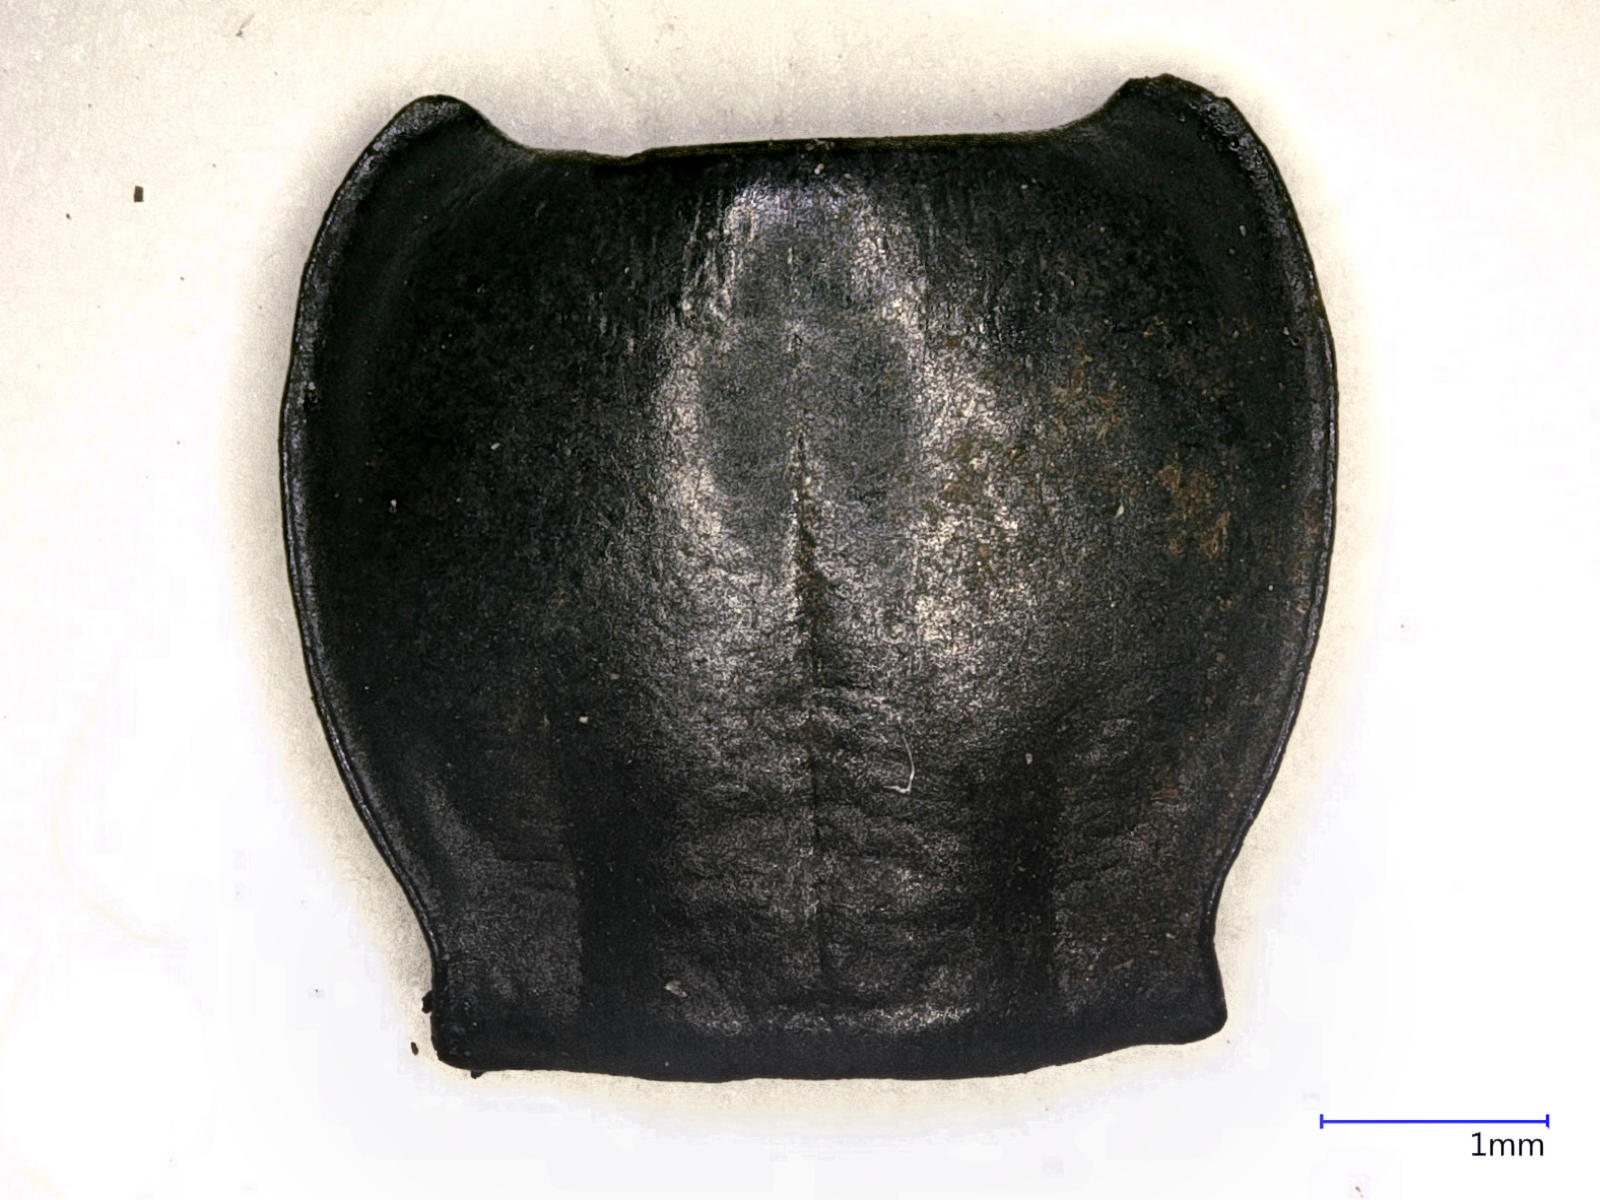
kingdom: Animalia
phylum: Arthropoda
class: Insecta
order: Coleoptera
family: Carabidae
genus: Pterostichus
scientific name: Pterostichus illustris
